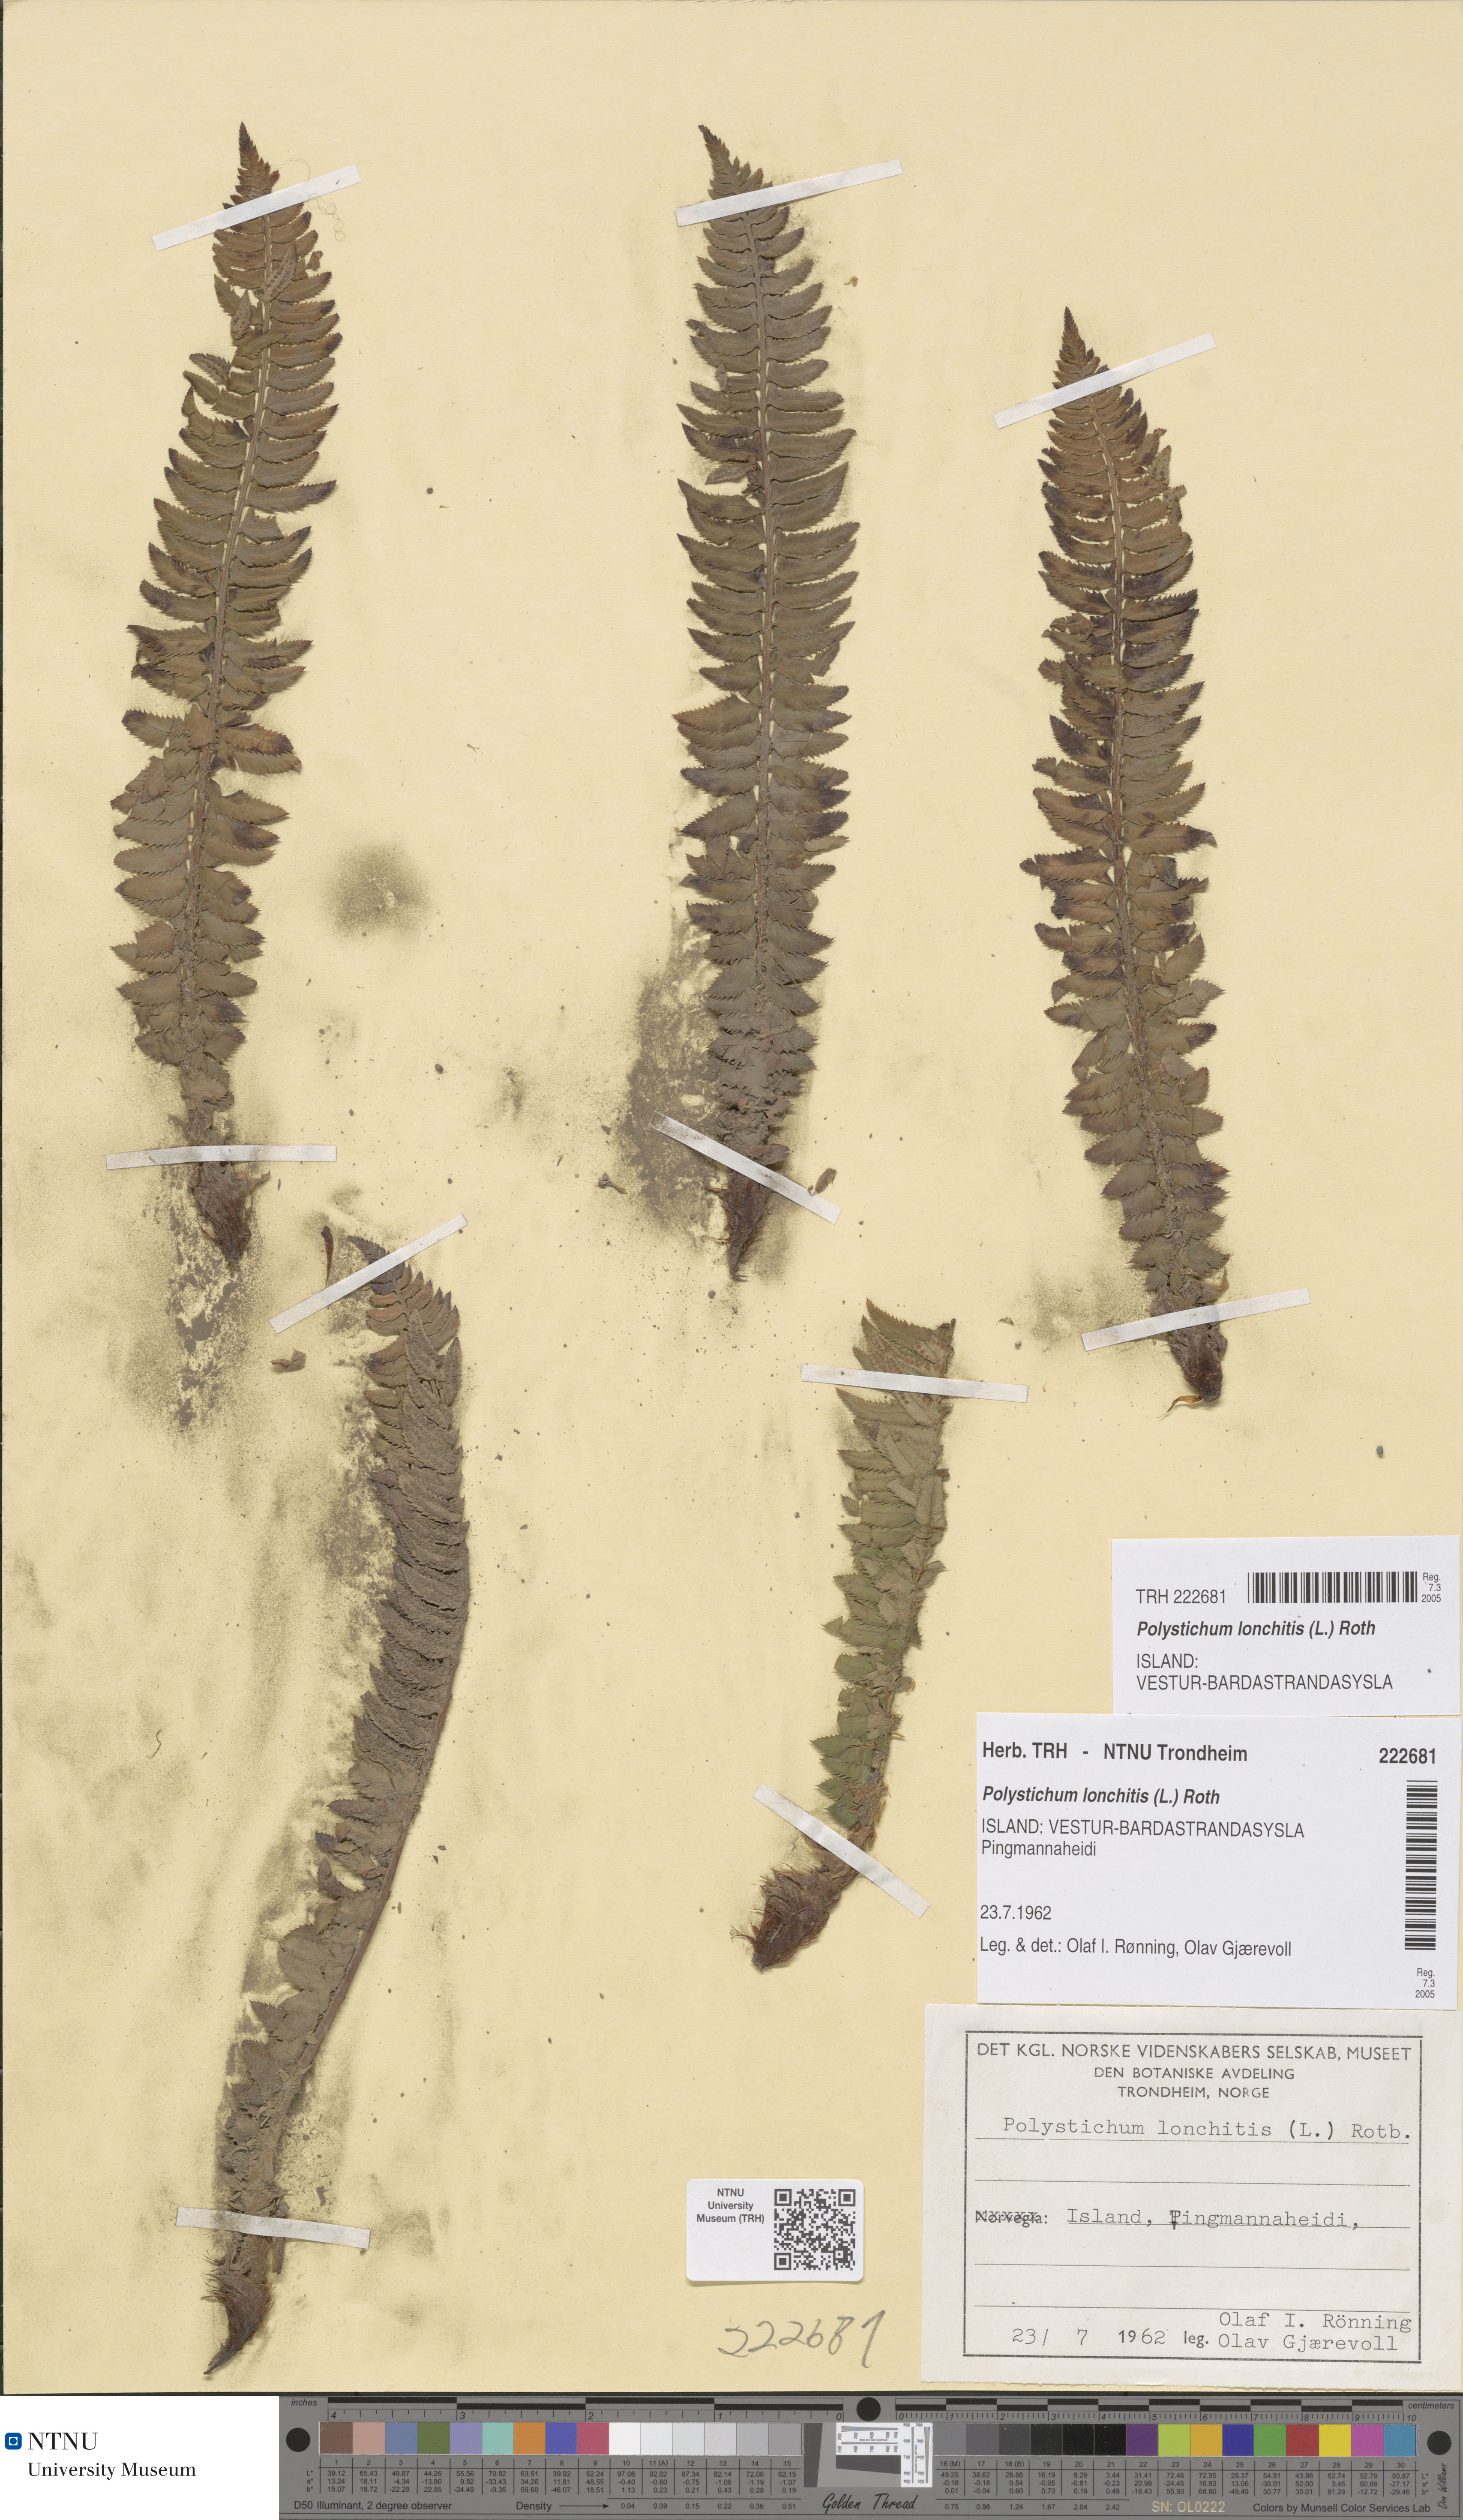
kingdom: Plantae
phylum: Tracheophyta
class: Polypodiopsida
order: Polypodiales
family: Dryopteridaceae
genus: Polystichum
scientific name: Polystichum lonchitis
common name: Holly fern
